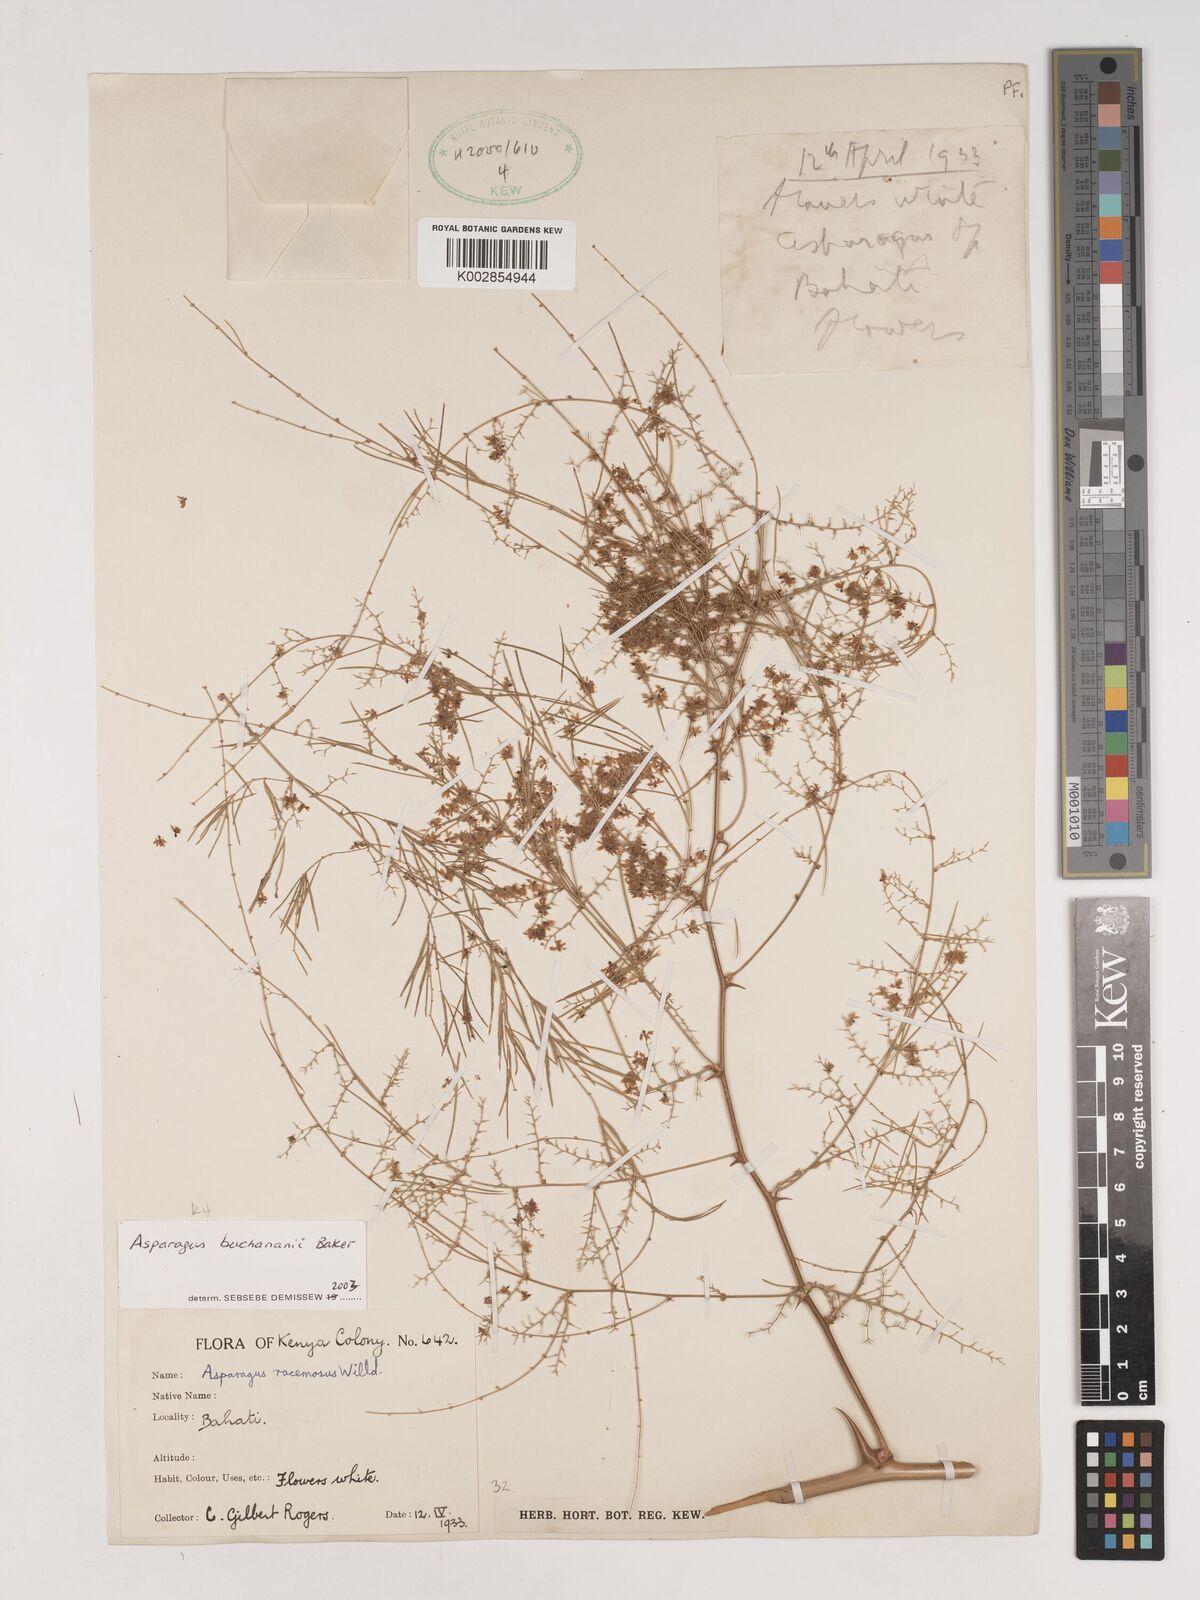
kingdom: Plantae
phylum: Tracheophyta
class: Liliopsida
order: Asparagales
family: Asparagaceae
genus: Asparagus
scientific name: Asparagus buchananii
